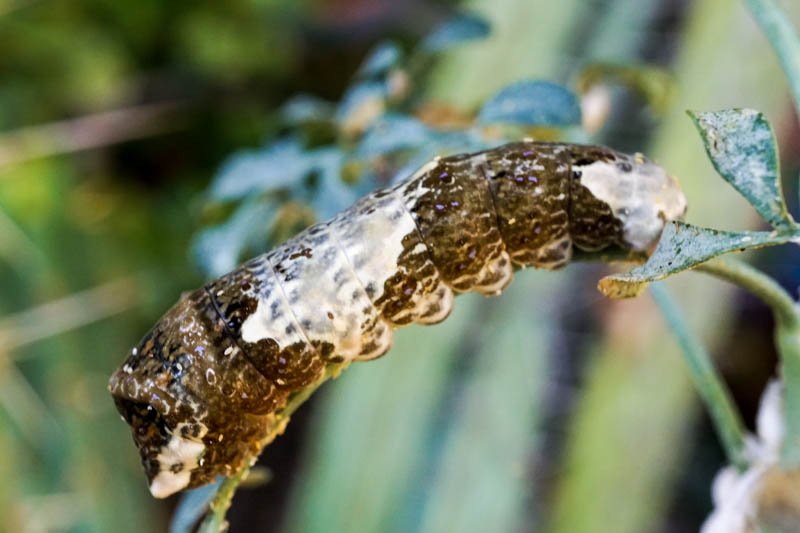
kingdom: Animalia
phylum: Arthropoda
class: Insecta
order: Lepidoptera
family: Papilionidae
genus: Papilio
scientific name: Papilio rumiko
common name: Western Giant Swallowtail
